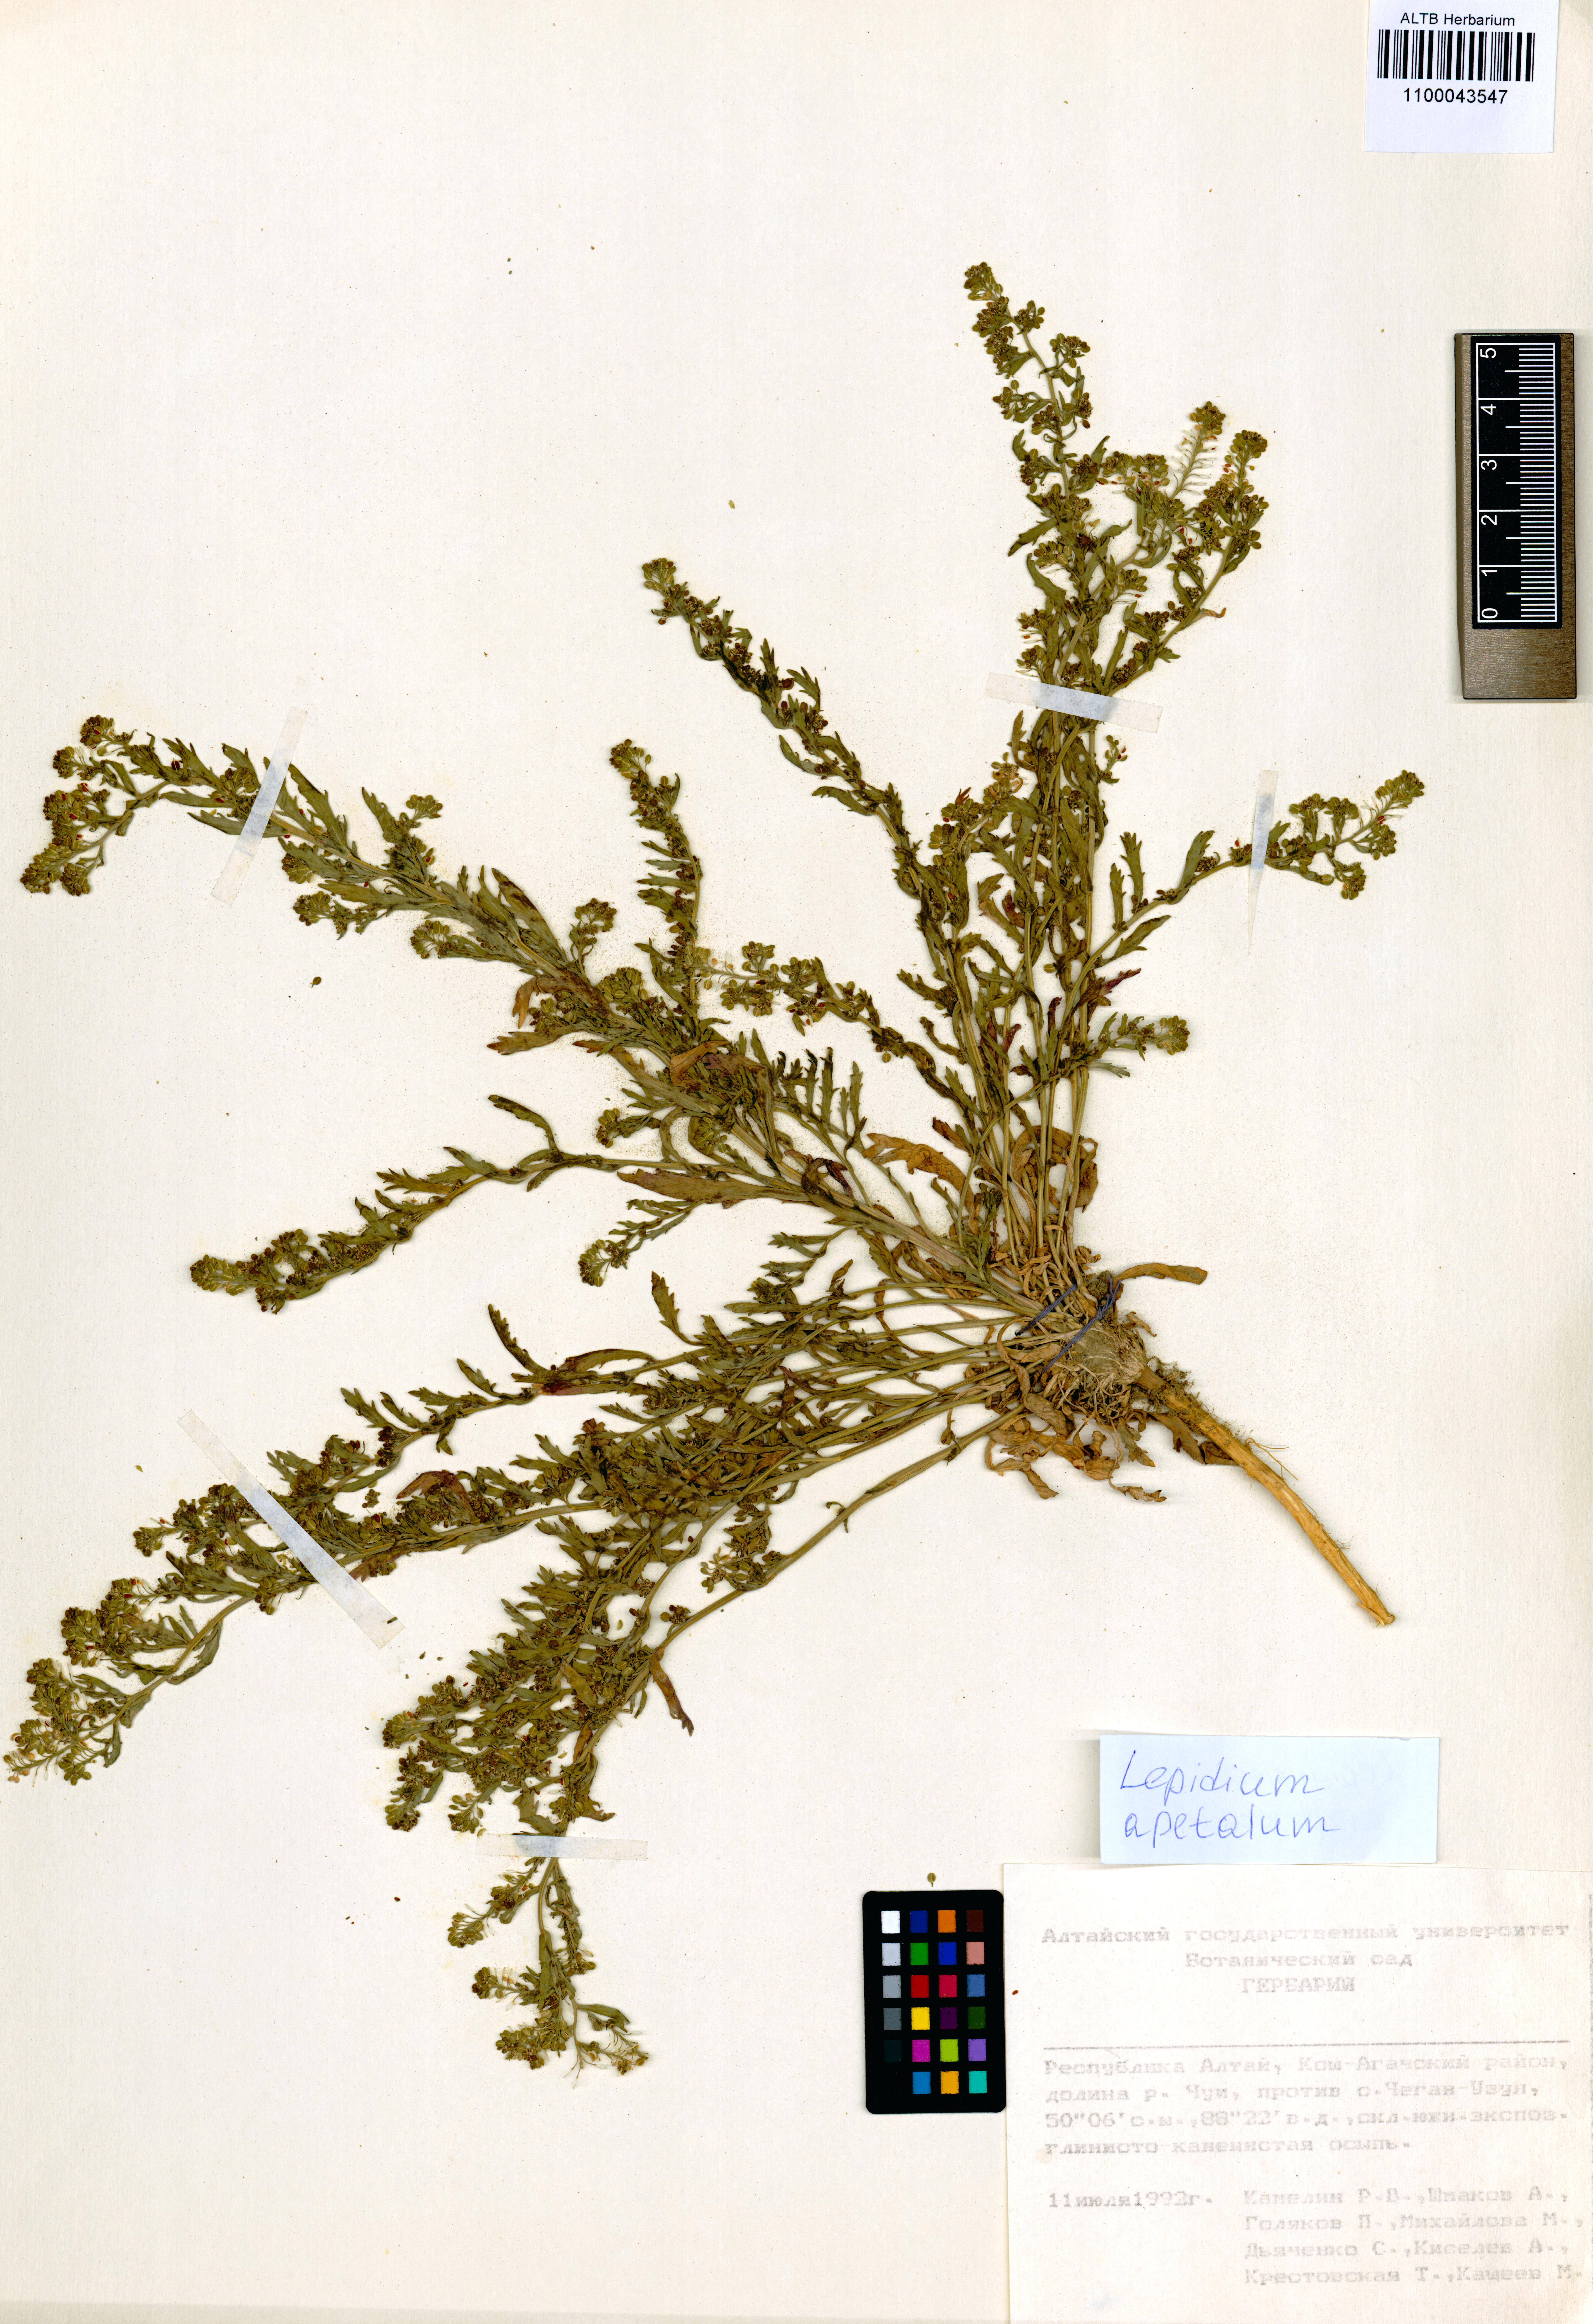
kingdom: Plantae
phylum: Tracheophyta
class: Magnoliopsida
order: Brassicales
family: Brassicaceae
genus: Lepidium
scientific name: Lepidium apetalum
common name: Pepperweed
